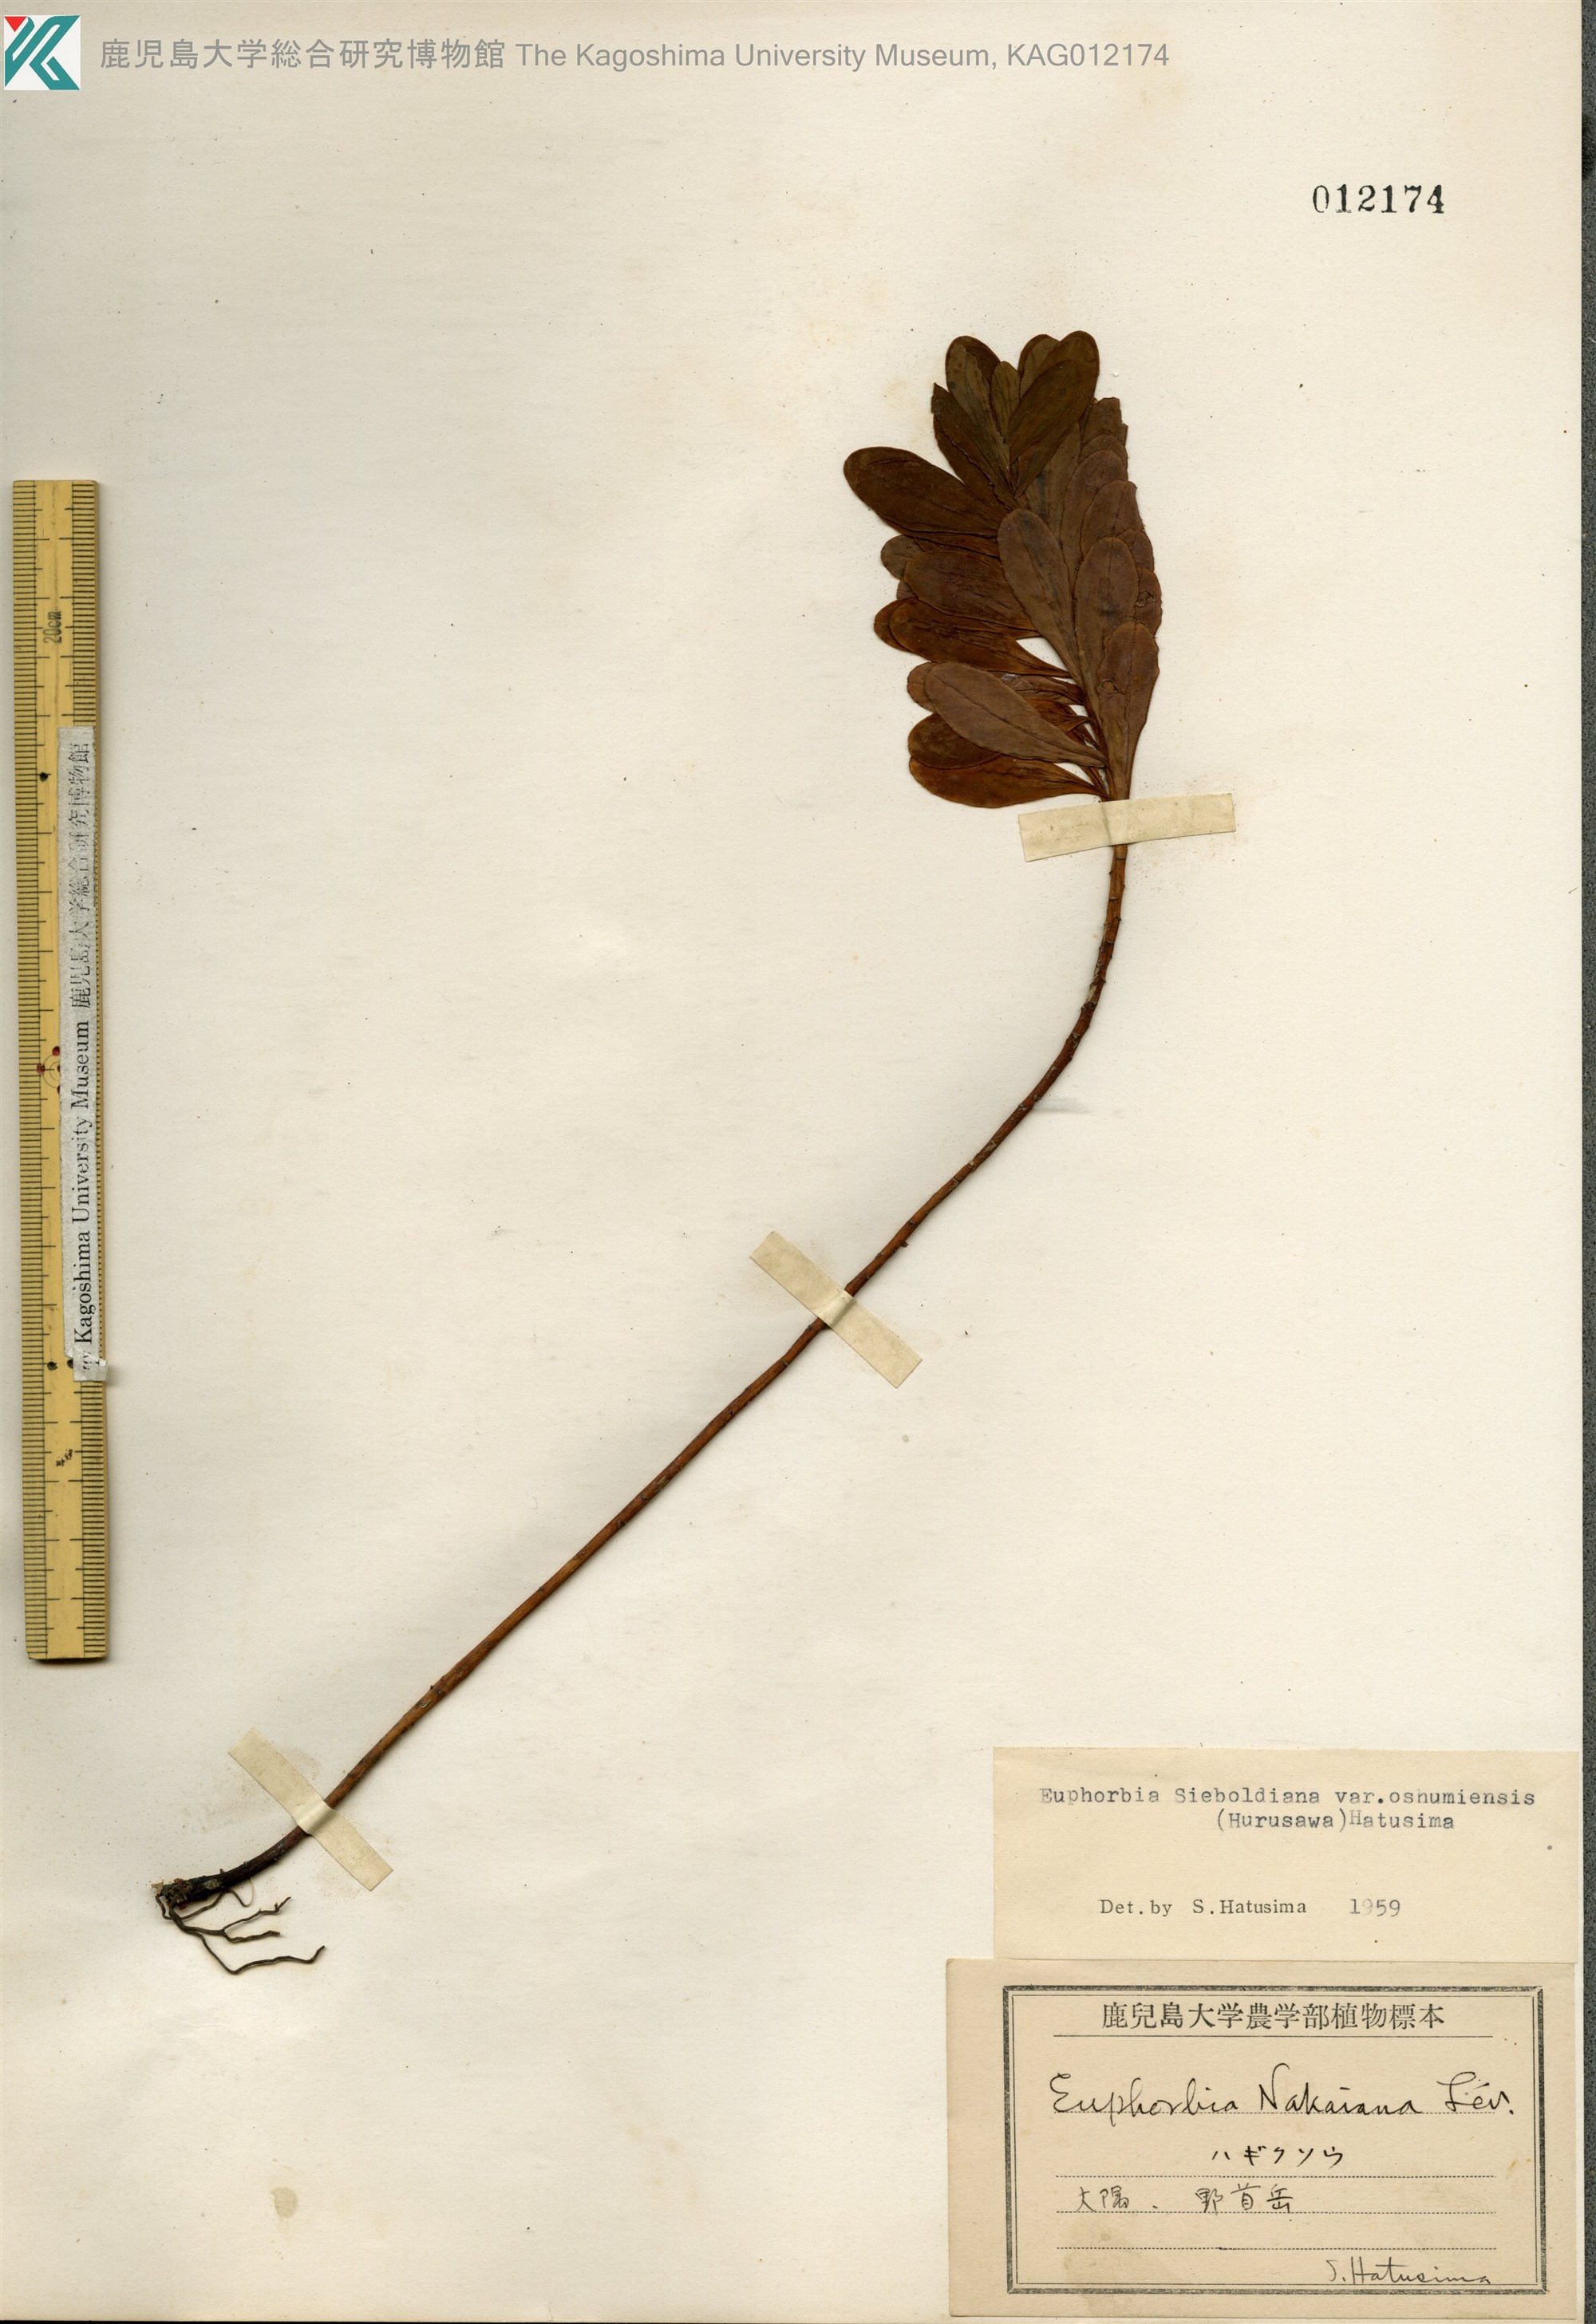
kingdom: Plantae
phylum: Tracheophyta
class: Magnoliopsida
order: Malpighiales
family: Euphorbiaceae
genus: Euphorbia
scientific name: Euphorbia sieboldiana
